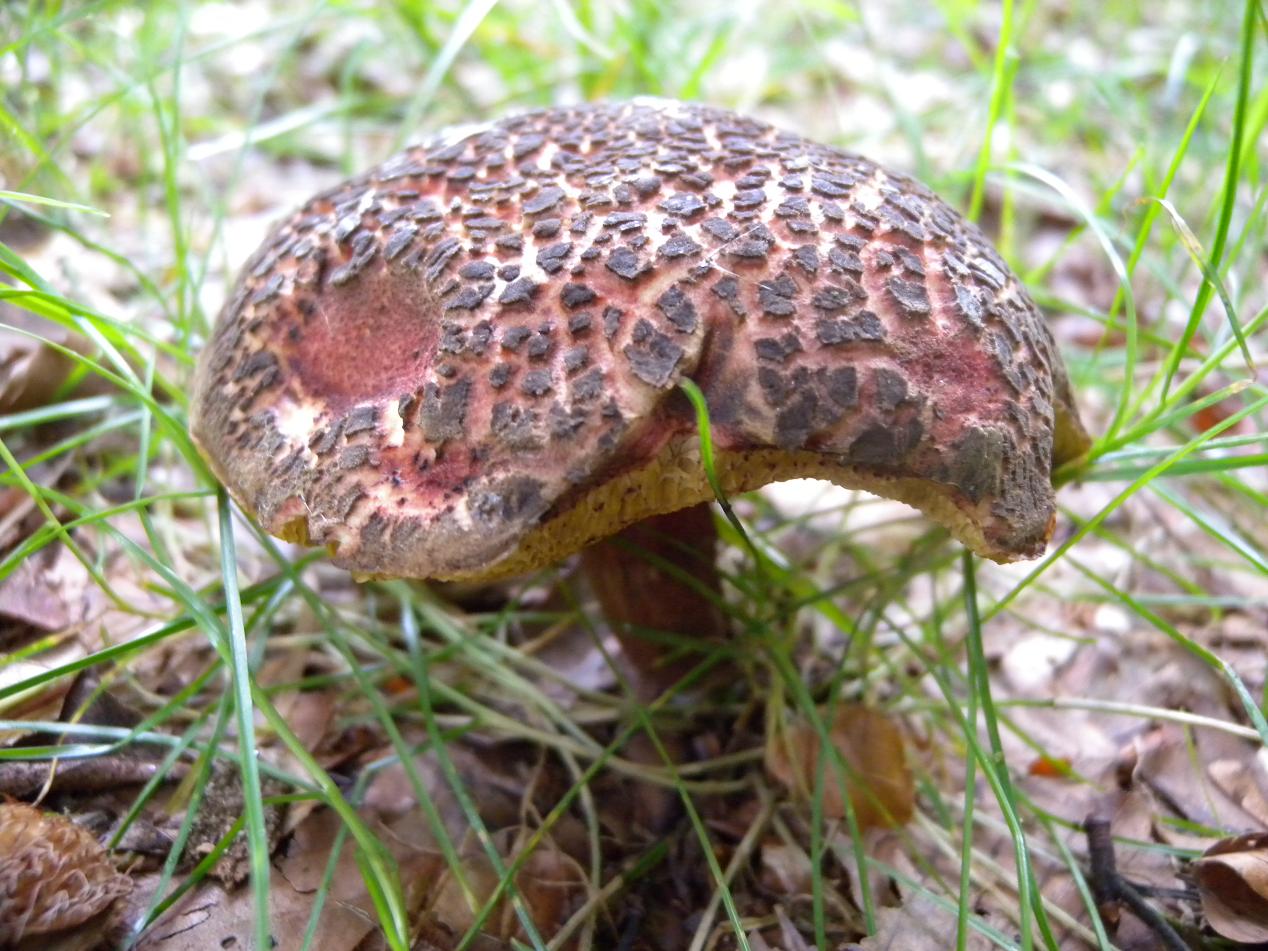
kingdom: Fungi
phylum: Basidiomycota
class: Agaricomycetes
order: Boletales
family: Boletaceae
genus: Xerocomellus
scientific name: Xerocomellus cisalpinus
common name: finsprukken rørhat
